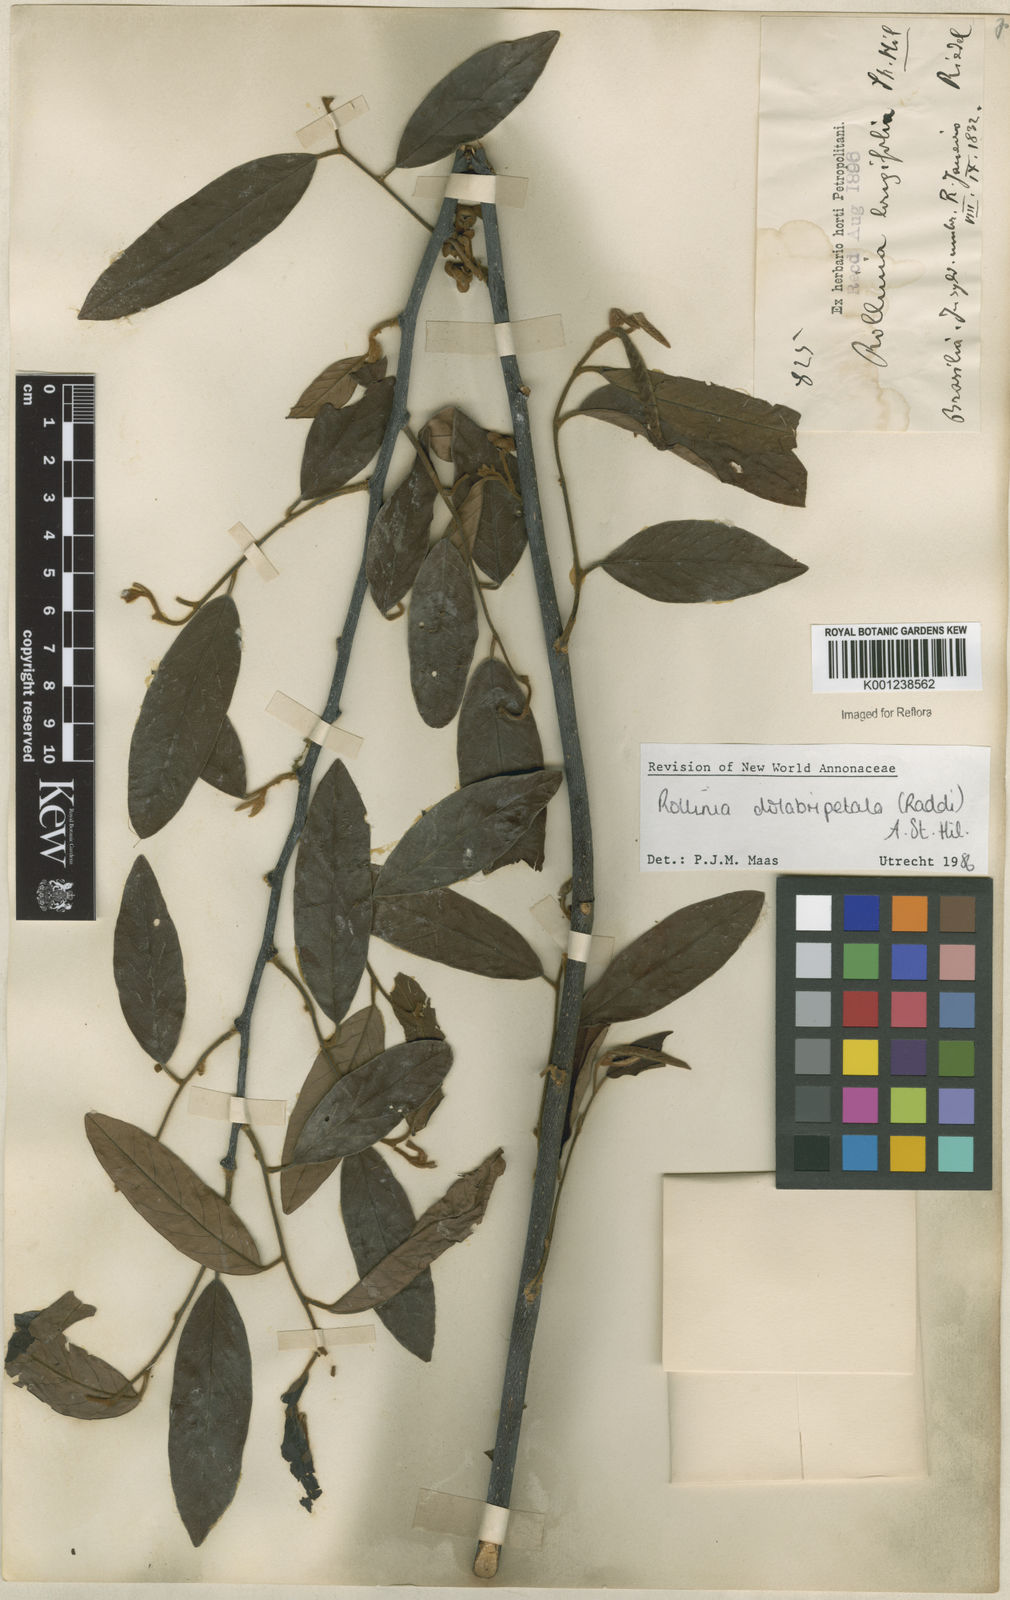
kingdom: Plantae
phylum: Tracheophyta
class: Magnoliopsida
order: Magnoliales
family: Annonaceae
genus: Annona
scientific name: Annona
